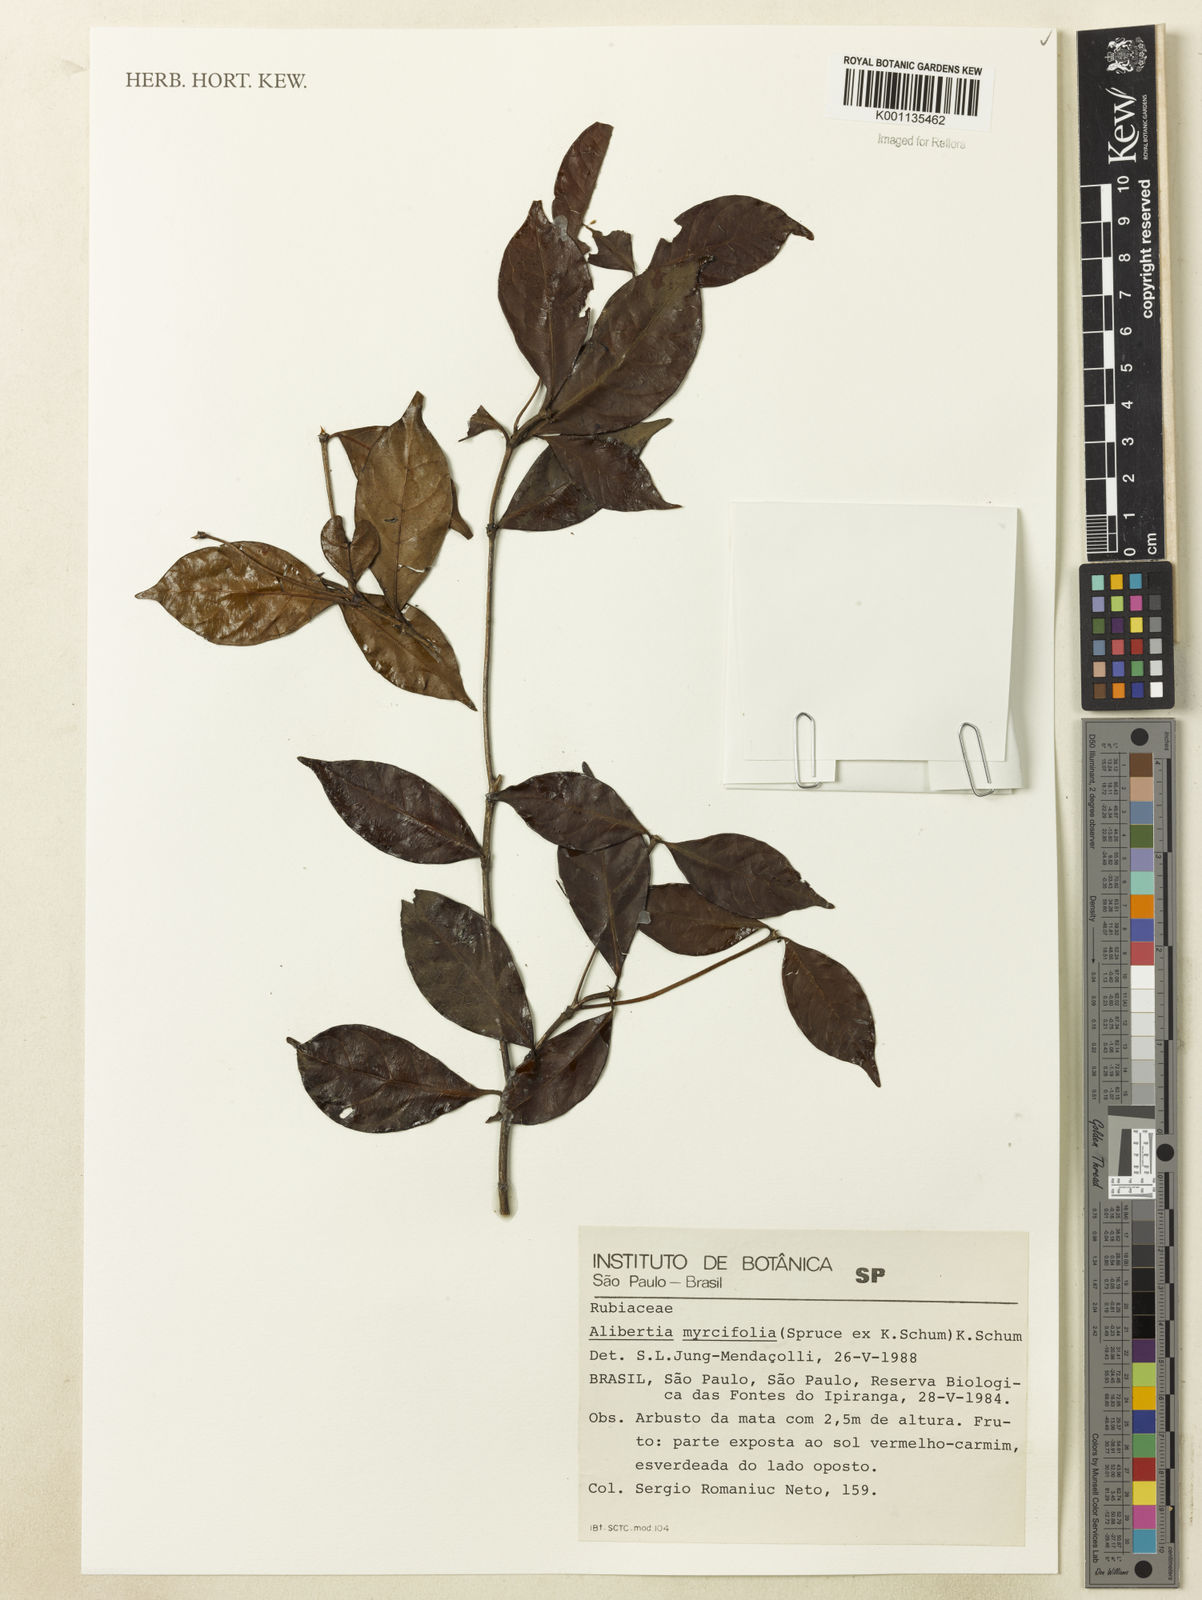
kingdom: Plantae
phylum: Tracheophyta
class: Magnoliopsida
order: Gentianales
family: Rubiaceae
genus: Cordiera
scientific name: Cordiera myrciifolia
